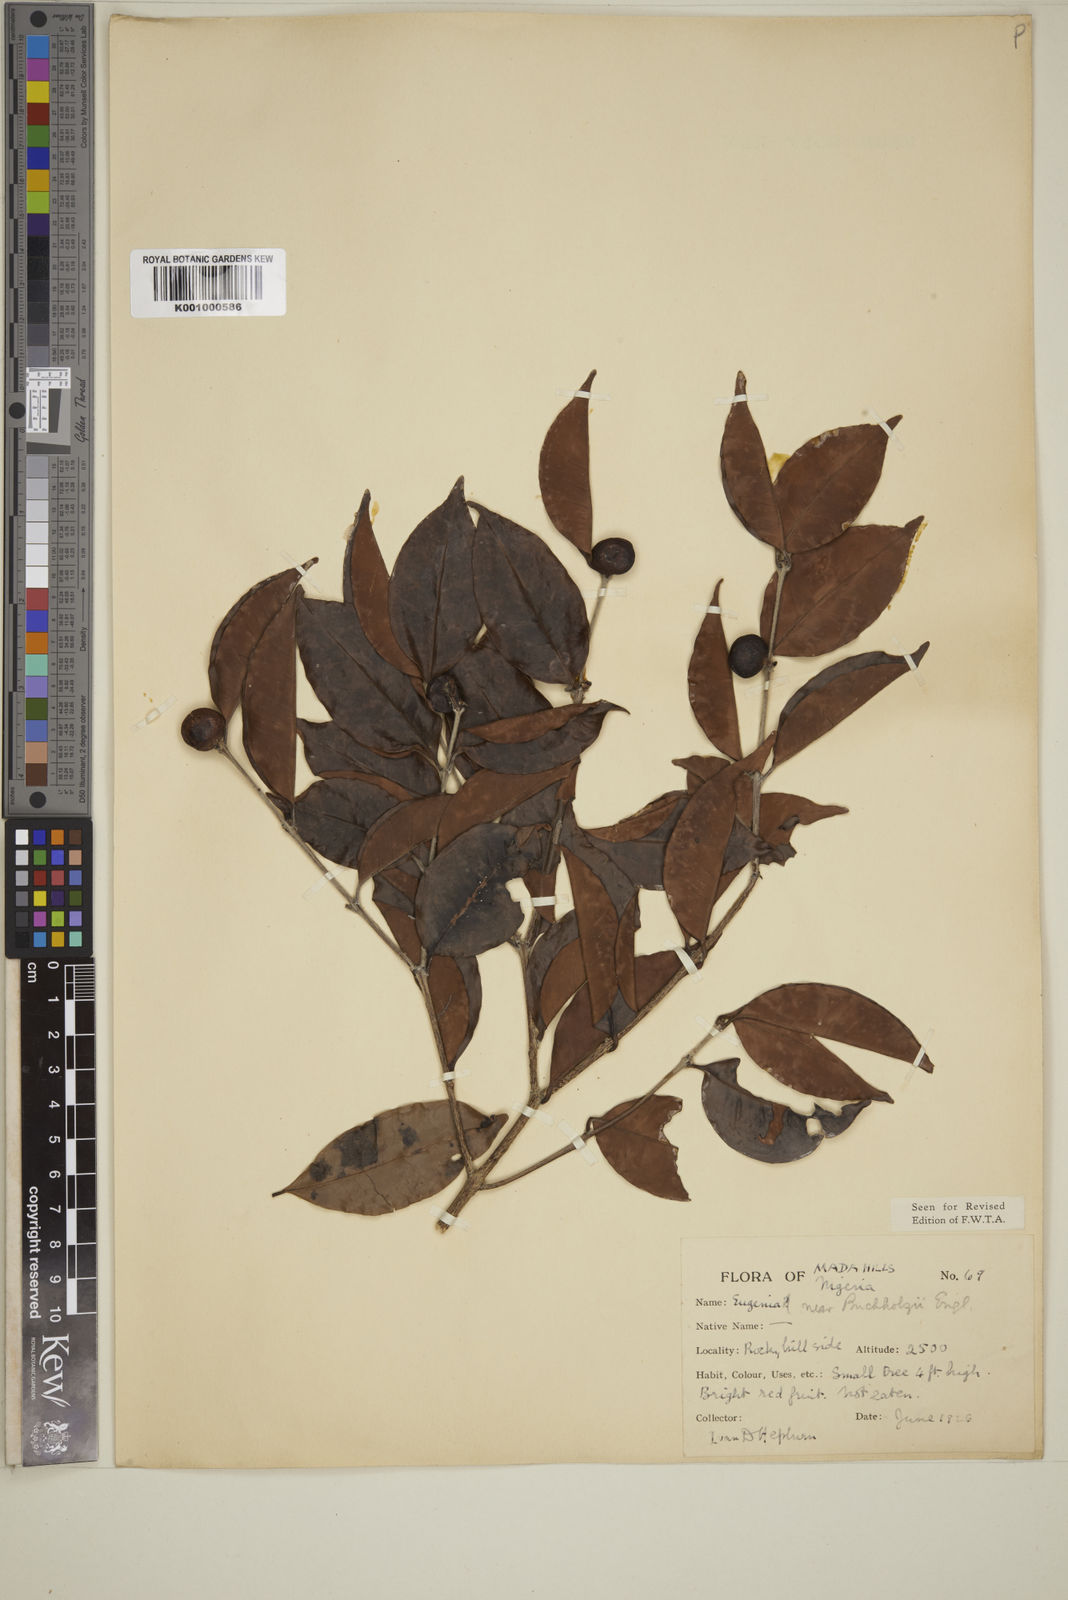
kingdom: Plantae
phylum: Tracheophyta
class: Magnoliopsida
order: Myrtales
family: Myrtaceae
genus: Eugenia
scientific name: Eugenia buchholzii
